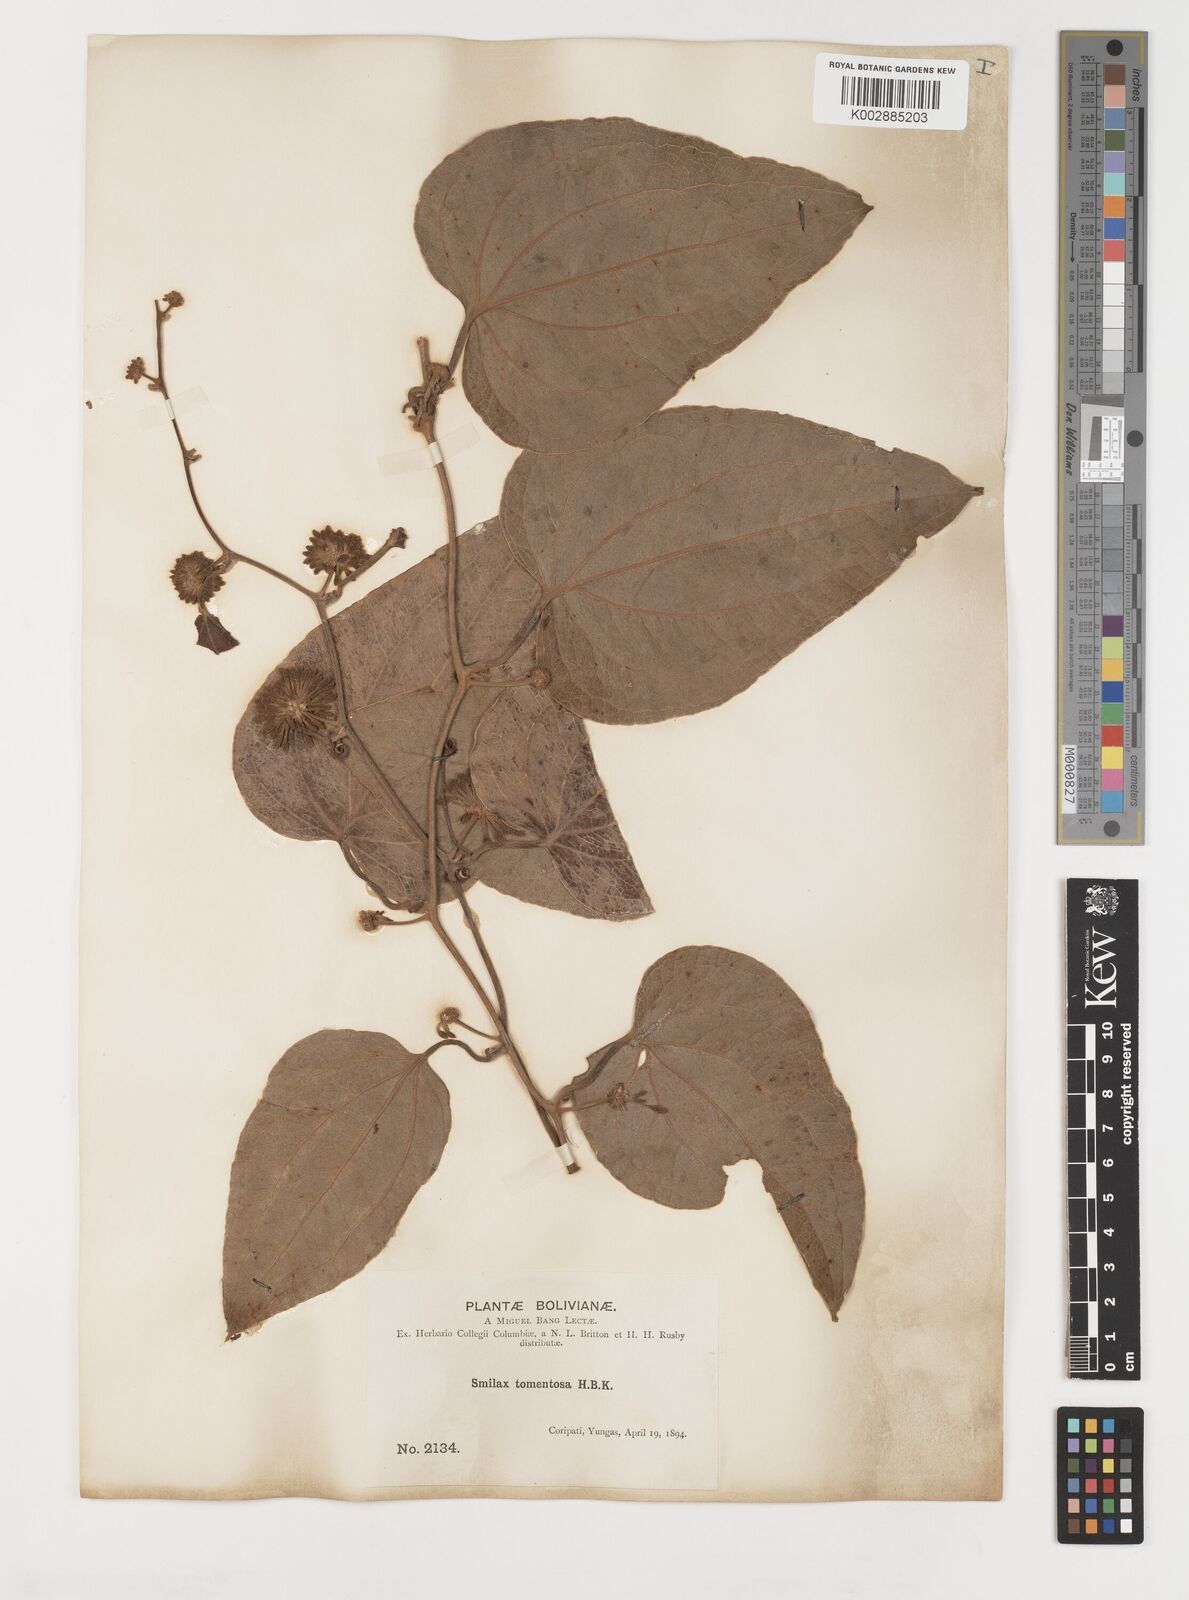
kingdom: Plantae
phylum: Tracheophyta
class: Liliopsida
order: Liliales
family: Smilacaceae
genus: Smilax
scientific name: Smilax tomentosa
